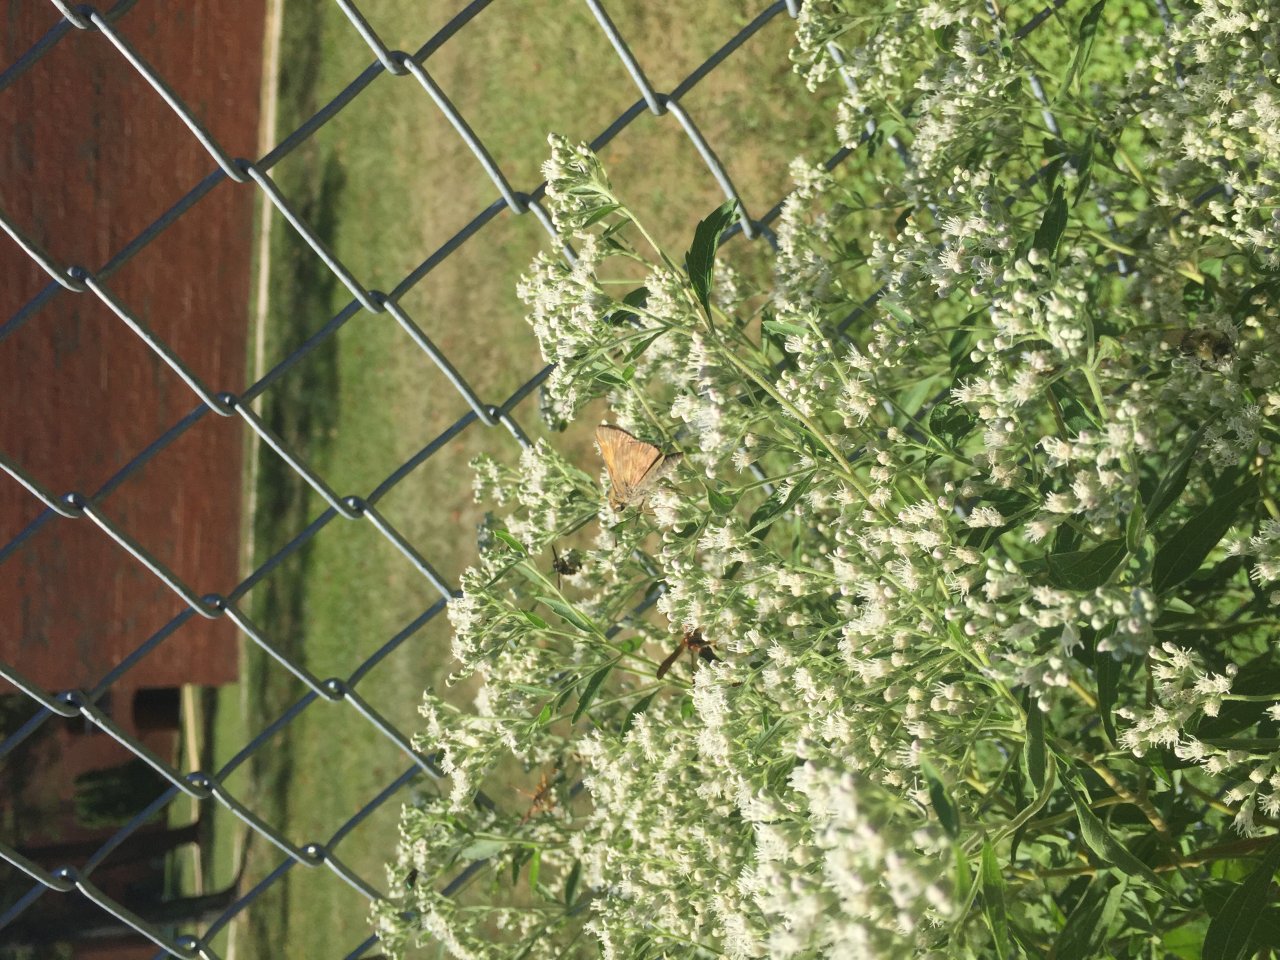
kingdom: Animalia
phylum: Arthropoda
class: Insecta
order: Lepidoptera
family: Hesperiidae
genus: Atalopedes
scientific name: Atalopedes campestris
